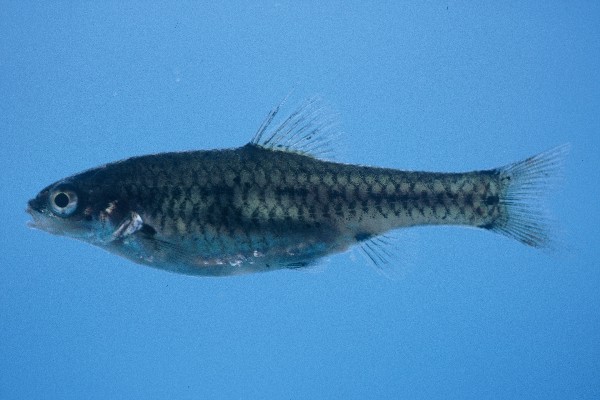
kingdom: Animalia
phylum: Chordata
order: Cypriniformes
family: Cyprinidae
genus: Enteromius
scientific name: Enteromius brevipinnis
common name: Shortfin barb
